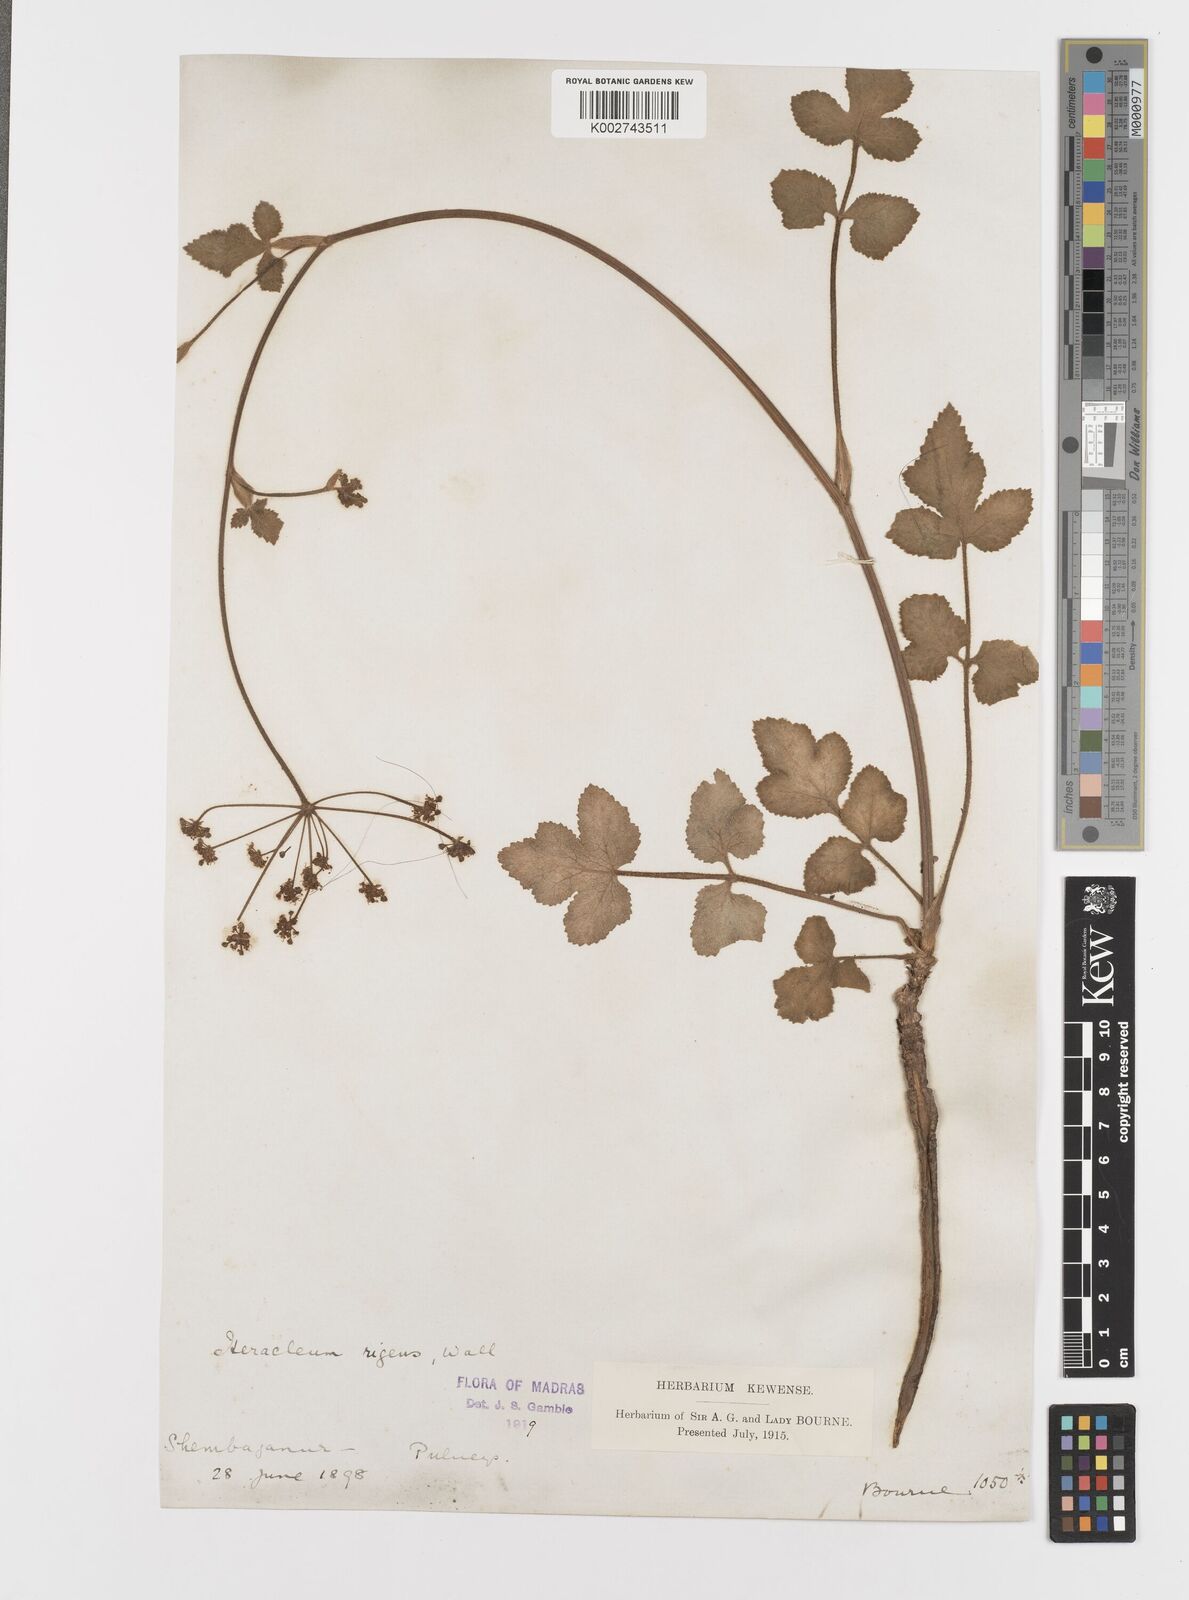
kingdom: Plantae
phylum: Tracheophyta
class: Magnoliopsida
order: Apiales
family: Apiaceae
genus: Tetrataenium
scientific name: Tetrataenium rigens
